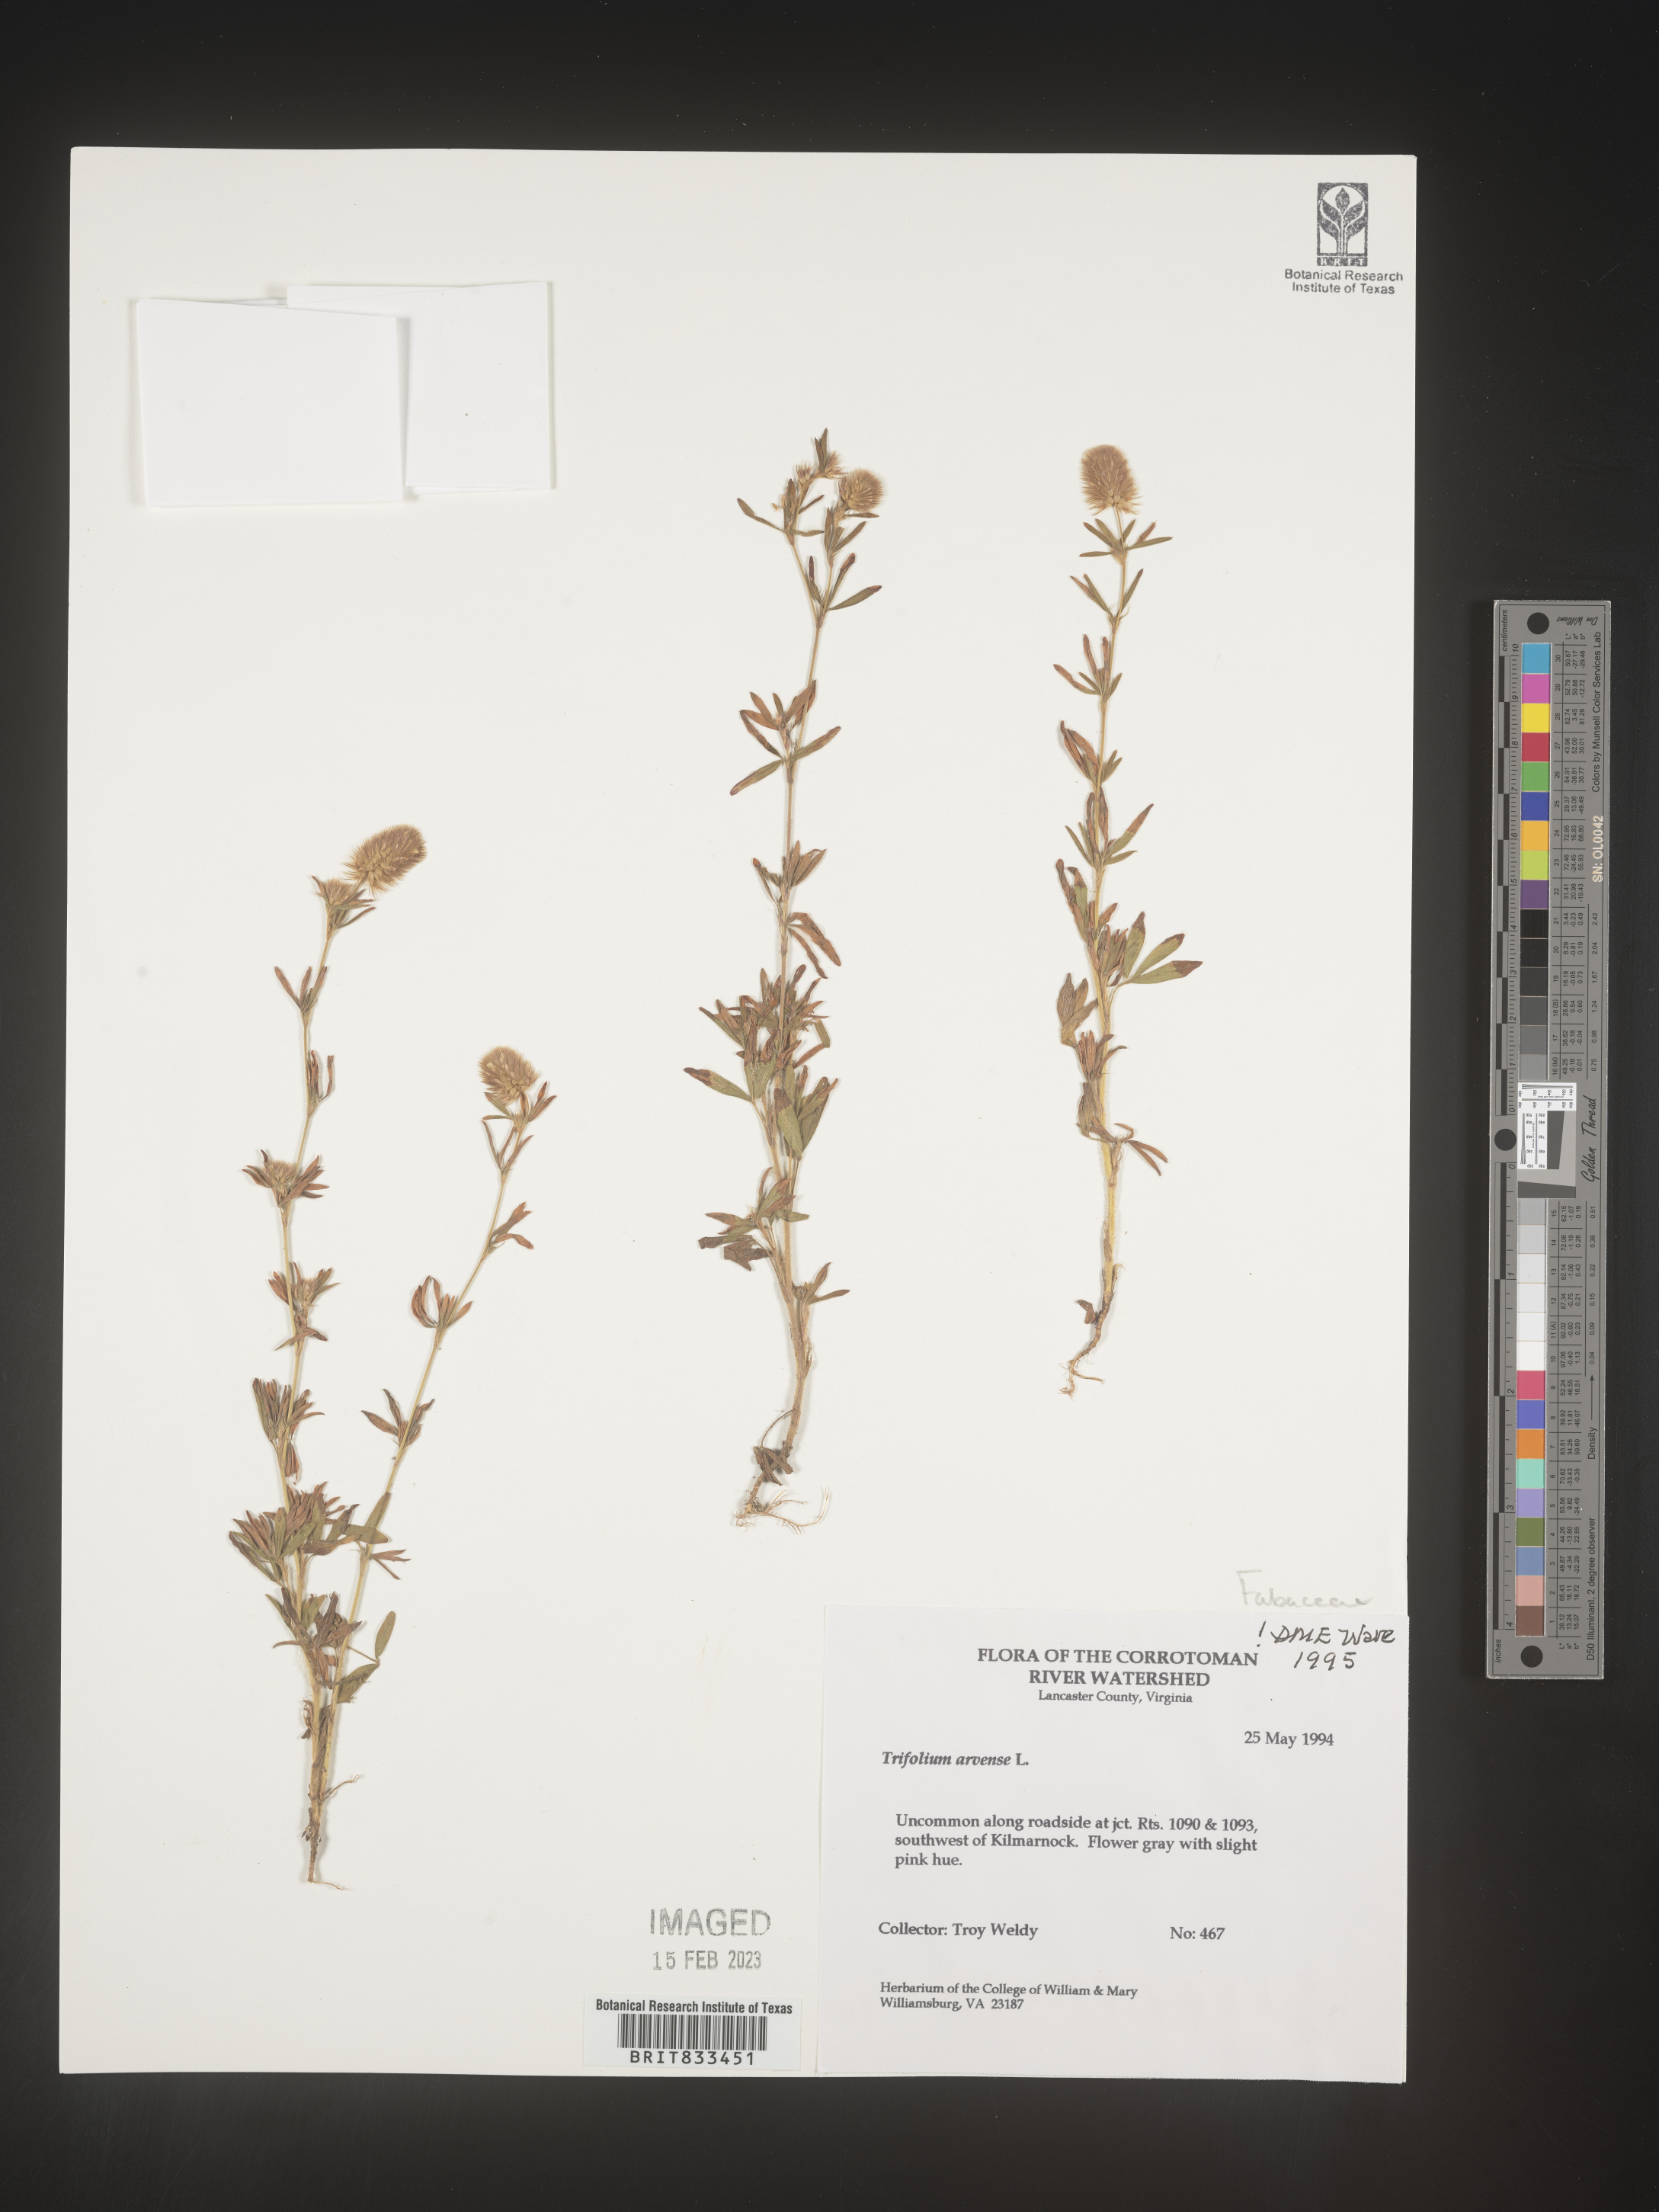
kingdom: Plantae
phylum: Tracheophyta
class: Magnoliopsida
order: Fabales
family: Fabaceae
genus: Trifolium
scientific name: Trifolium arvense
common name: Hare's-foot clover
